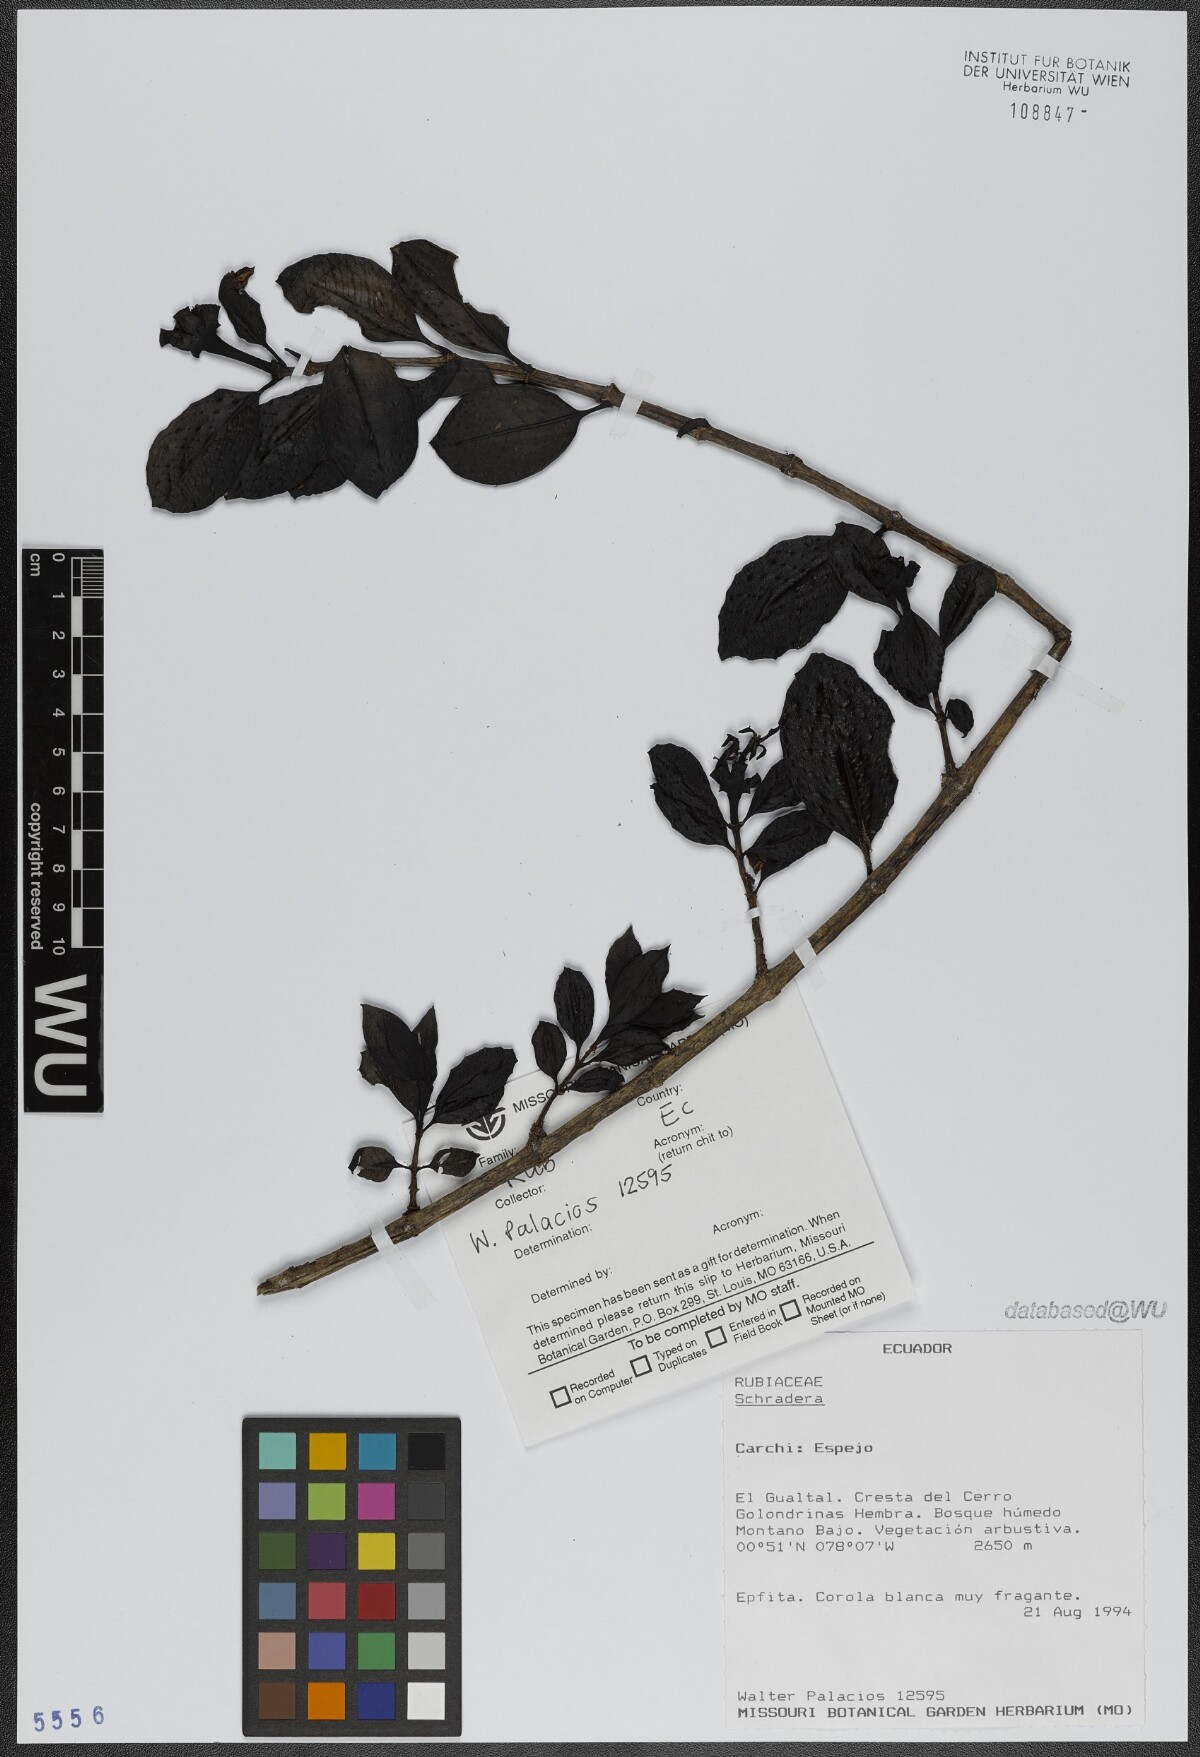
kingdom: Plantae
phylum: Tracheophyta
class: Magnoliopsida
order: Gentianales
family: Rubiaceae
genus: Schradera
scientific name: Schradera
